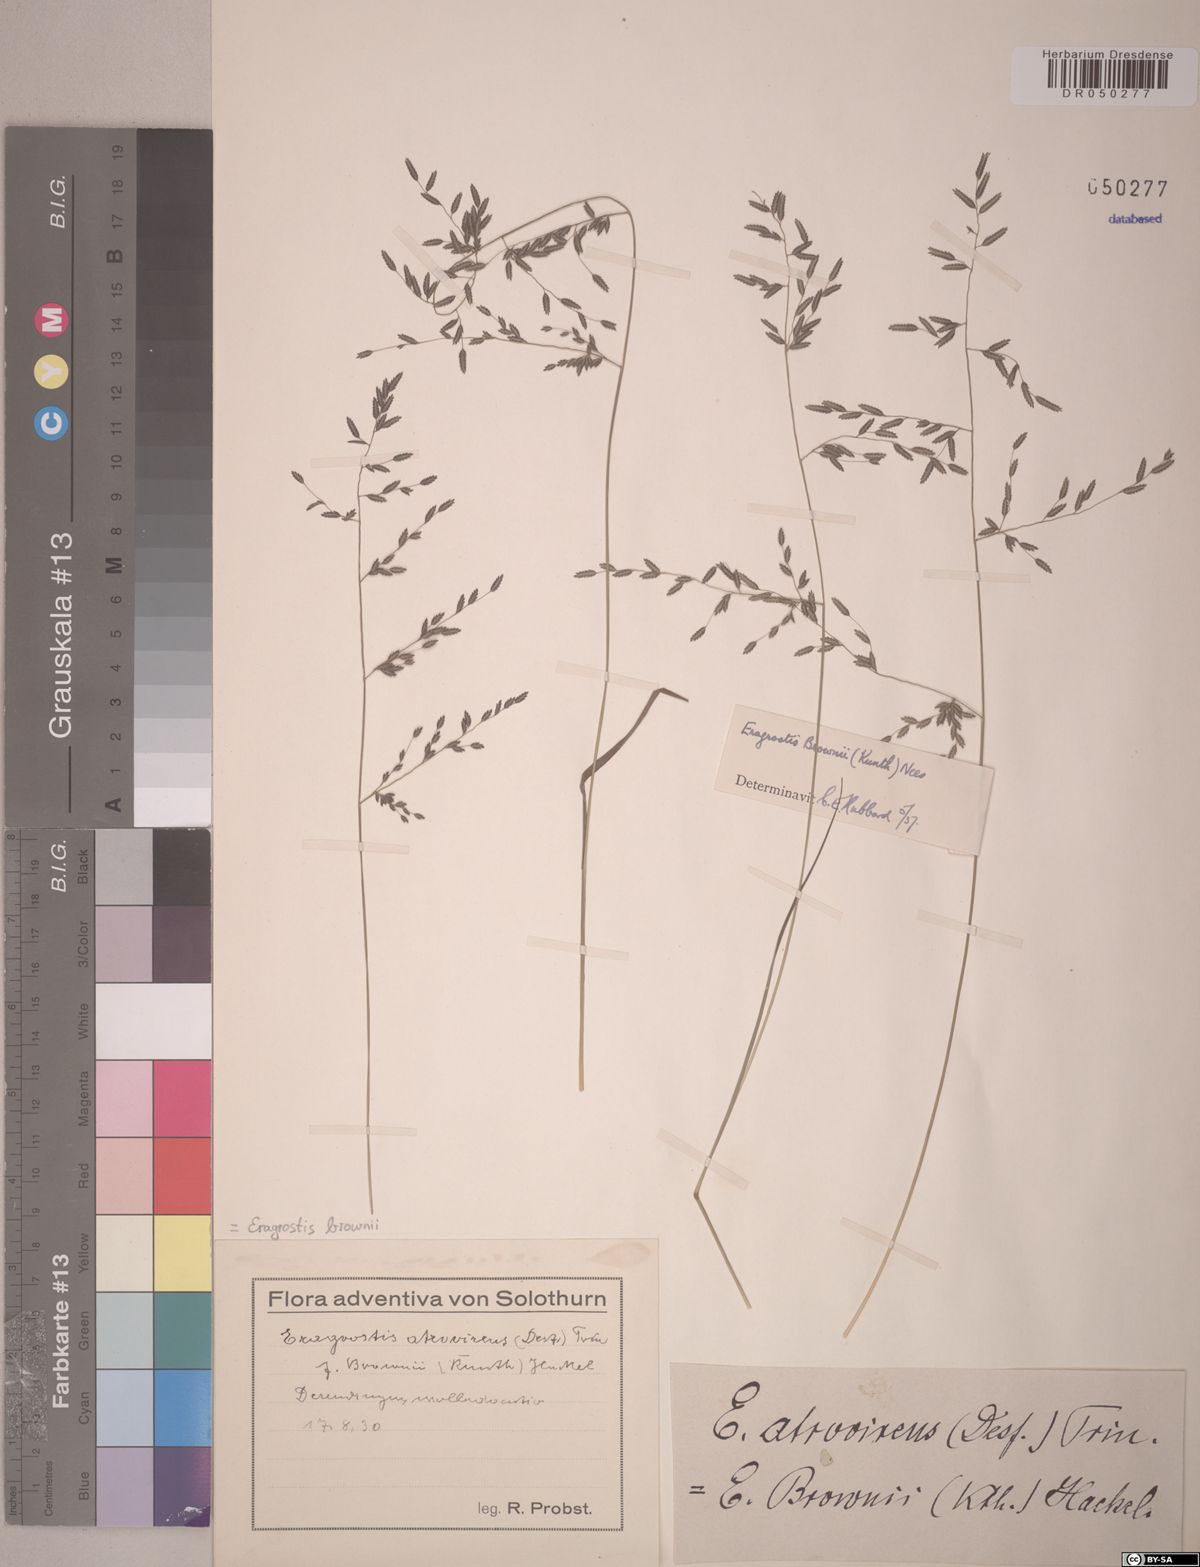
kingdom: Plantae
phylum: Tracheophyta
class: Liliopsida
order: Poales
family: Poaceae
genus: Eragrostis
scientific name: Eragrostis brownii
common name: Lovegrass
